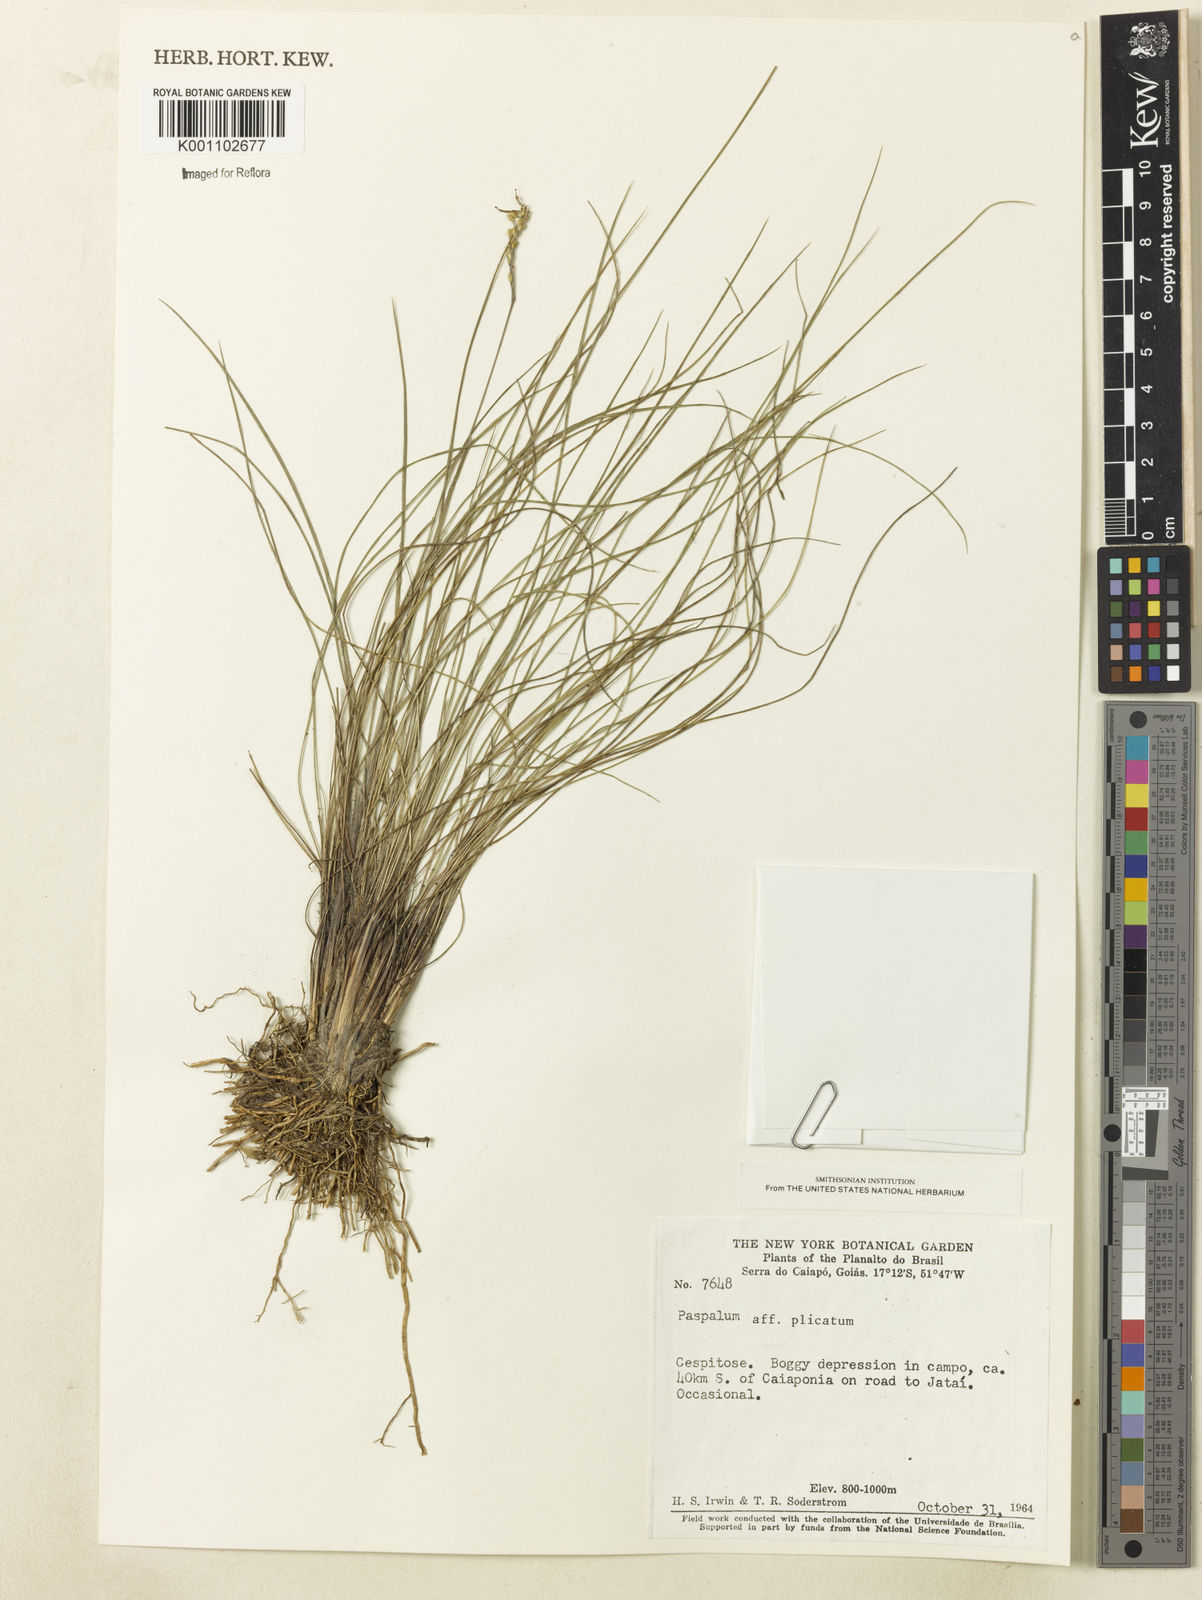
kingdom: Plantae
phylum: Tracheophyta
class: Liliopsida
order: Poales
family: Poaceae
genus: Paspalum
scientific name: Paspalum
